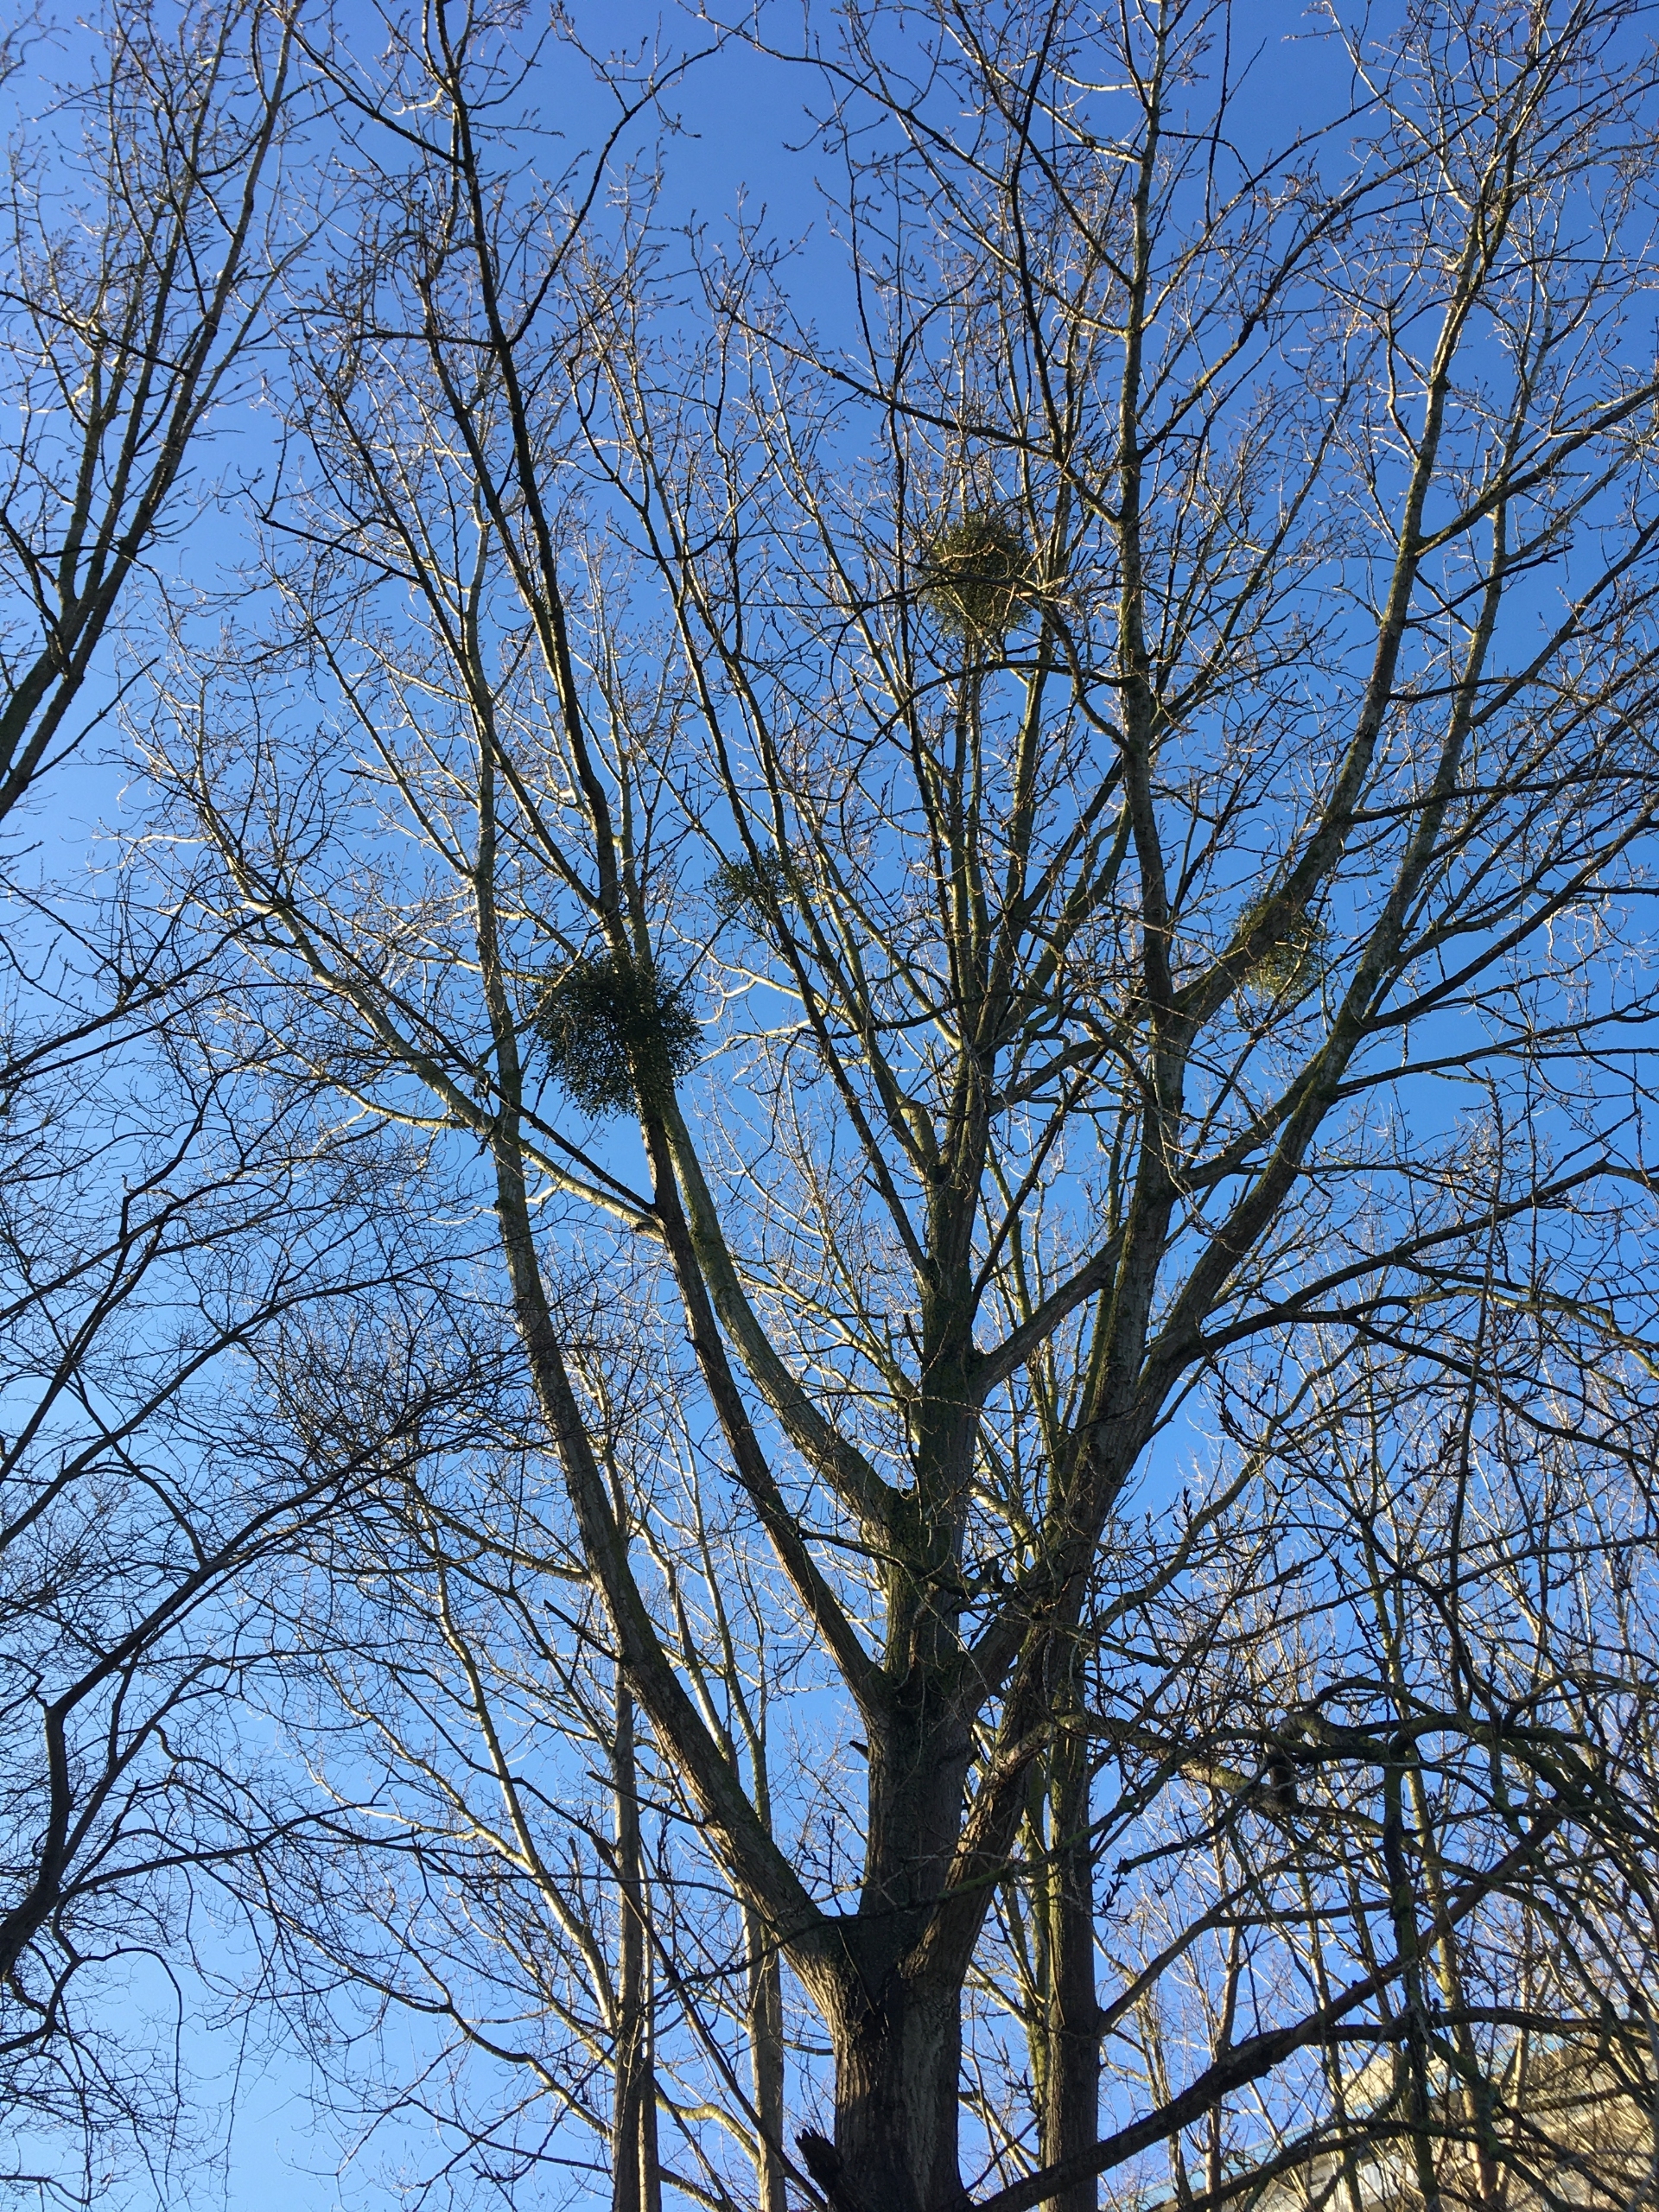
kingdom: Plantae
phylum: Tracheophyta
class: Magnoliopsida
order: Santalales
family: Viscaceae
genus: Viscum
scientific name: Viscum album
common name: Mistelten
